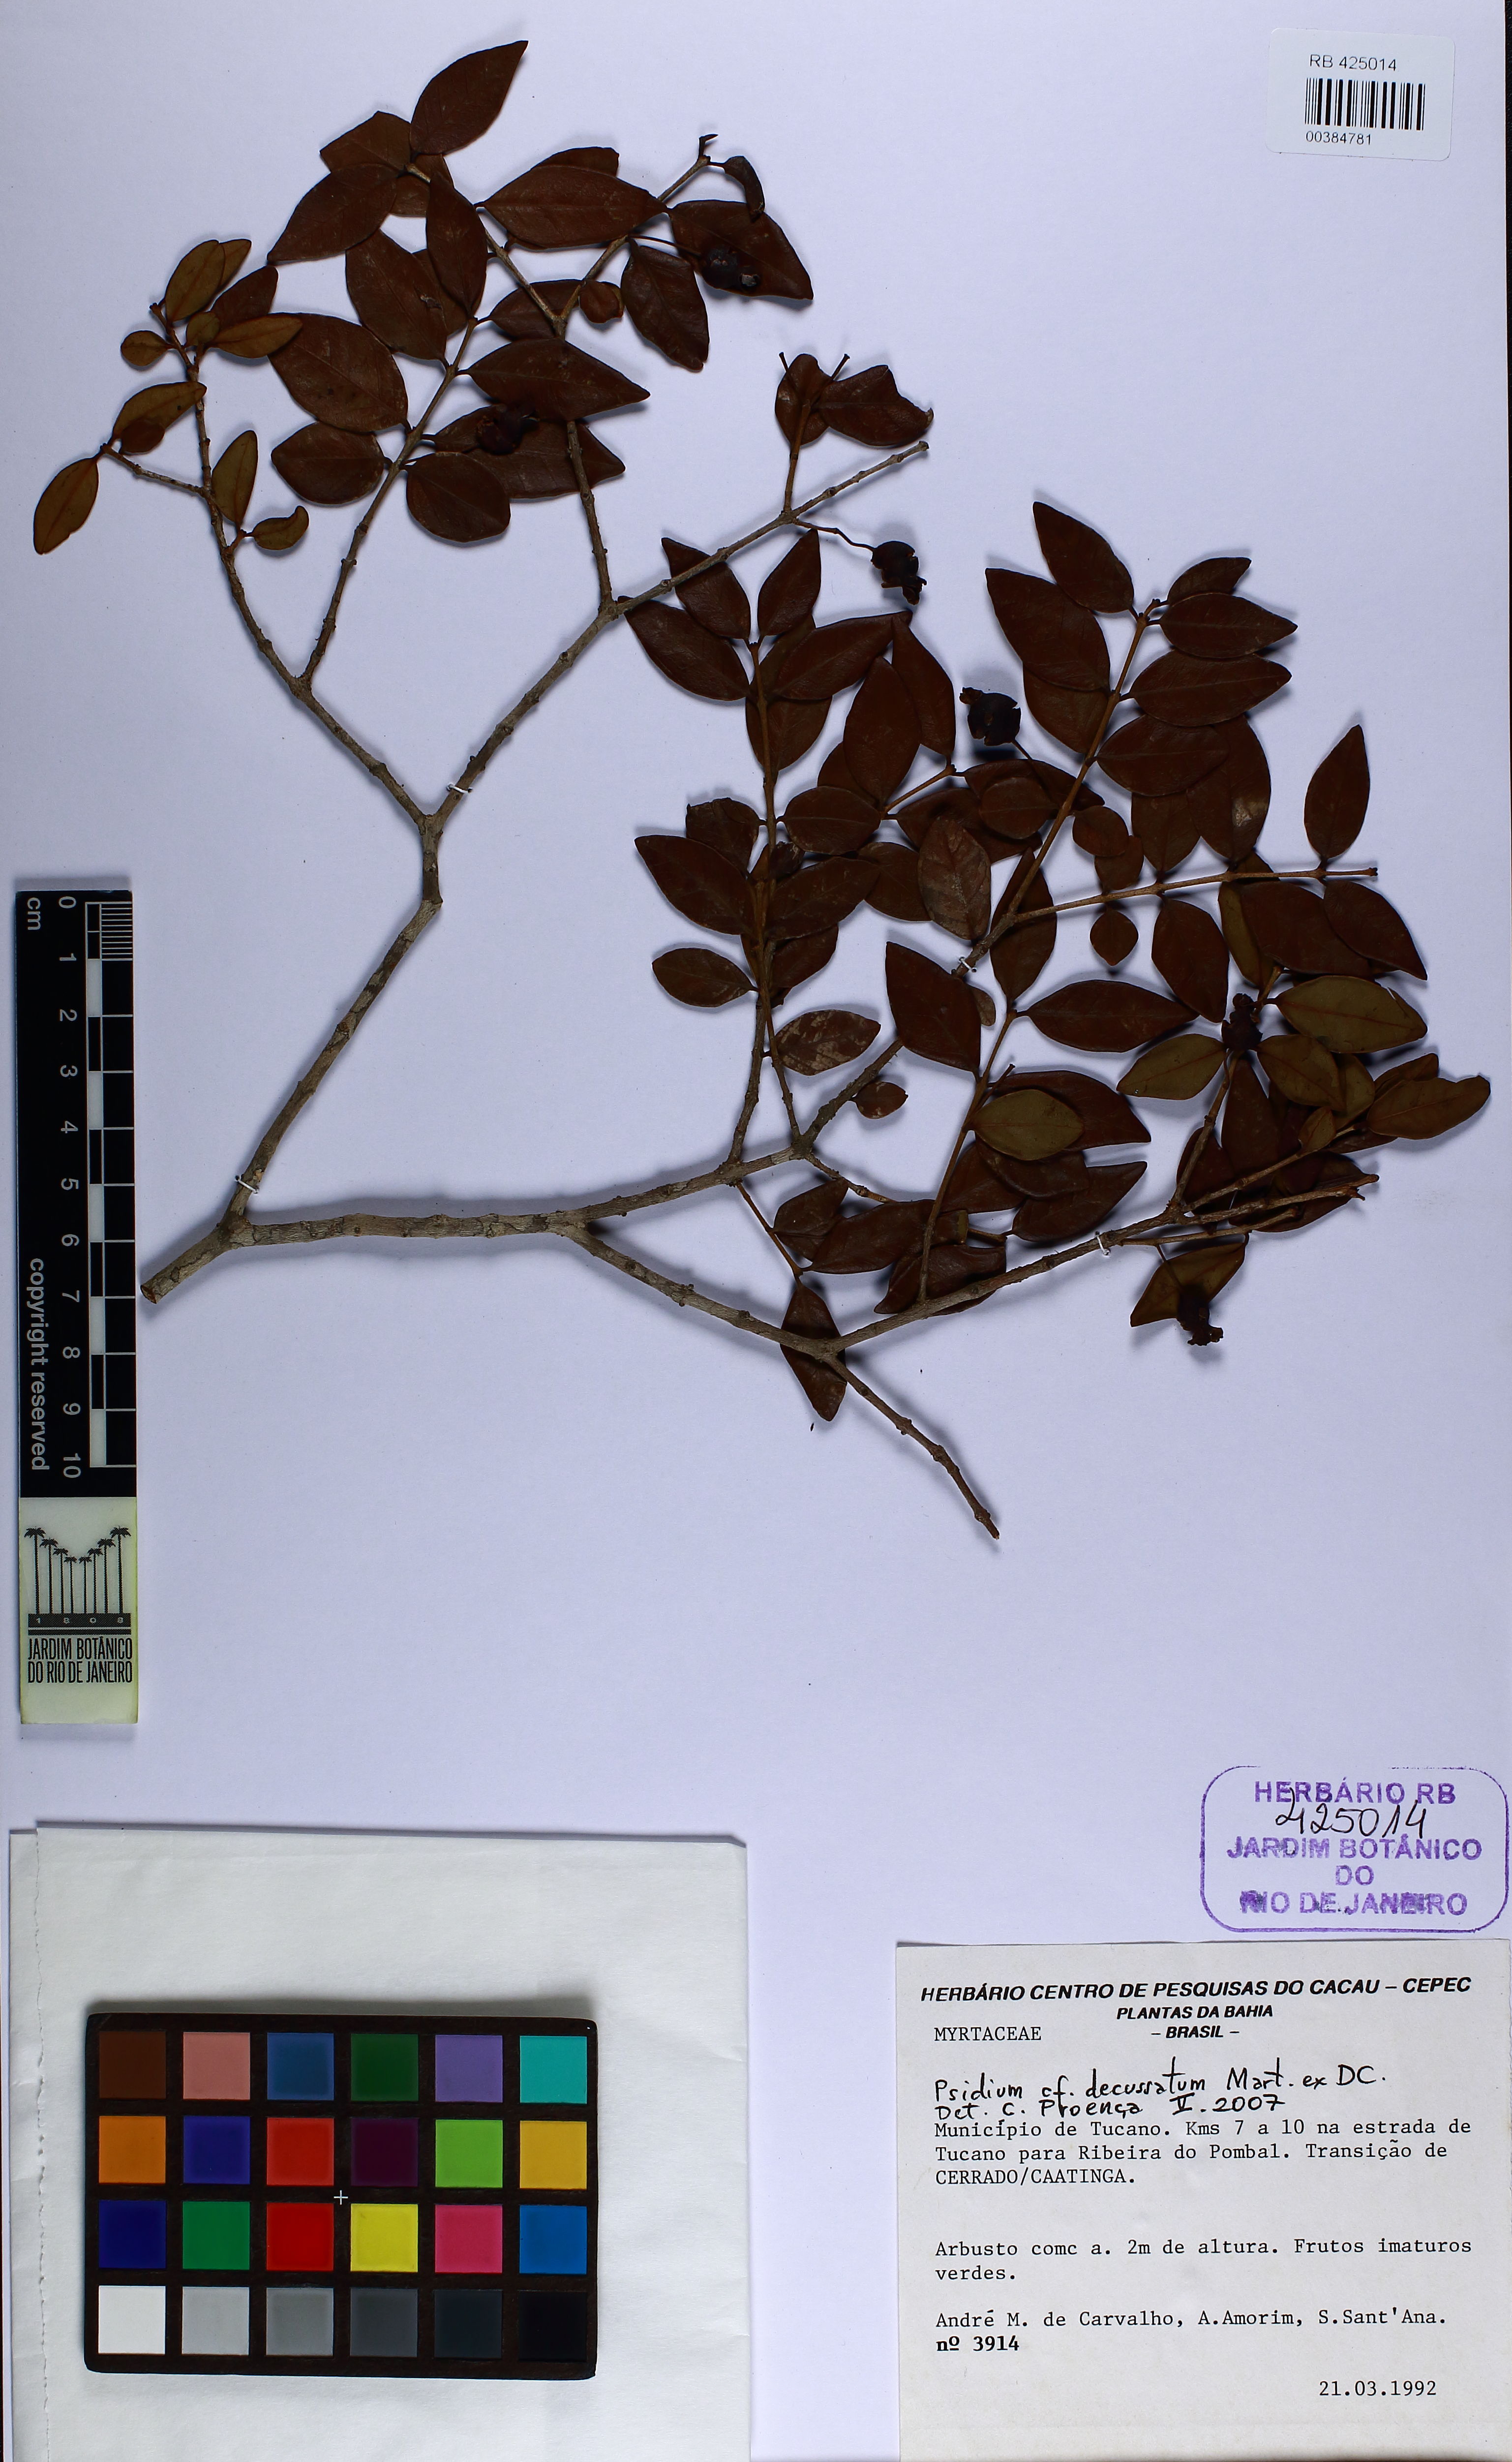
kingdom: Plantae
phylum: Tracheophyta
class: Magnoliopsida
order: Myrtales
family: Myrtaceae
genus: Psidium
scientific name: Psidium salutare
